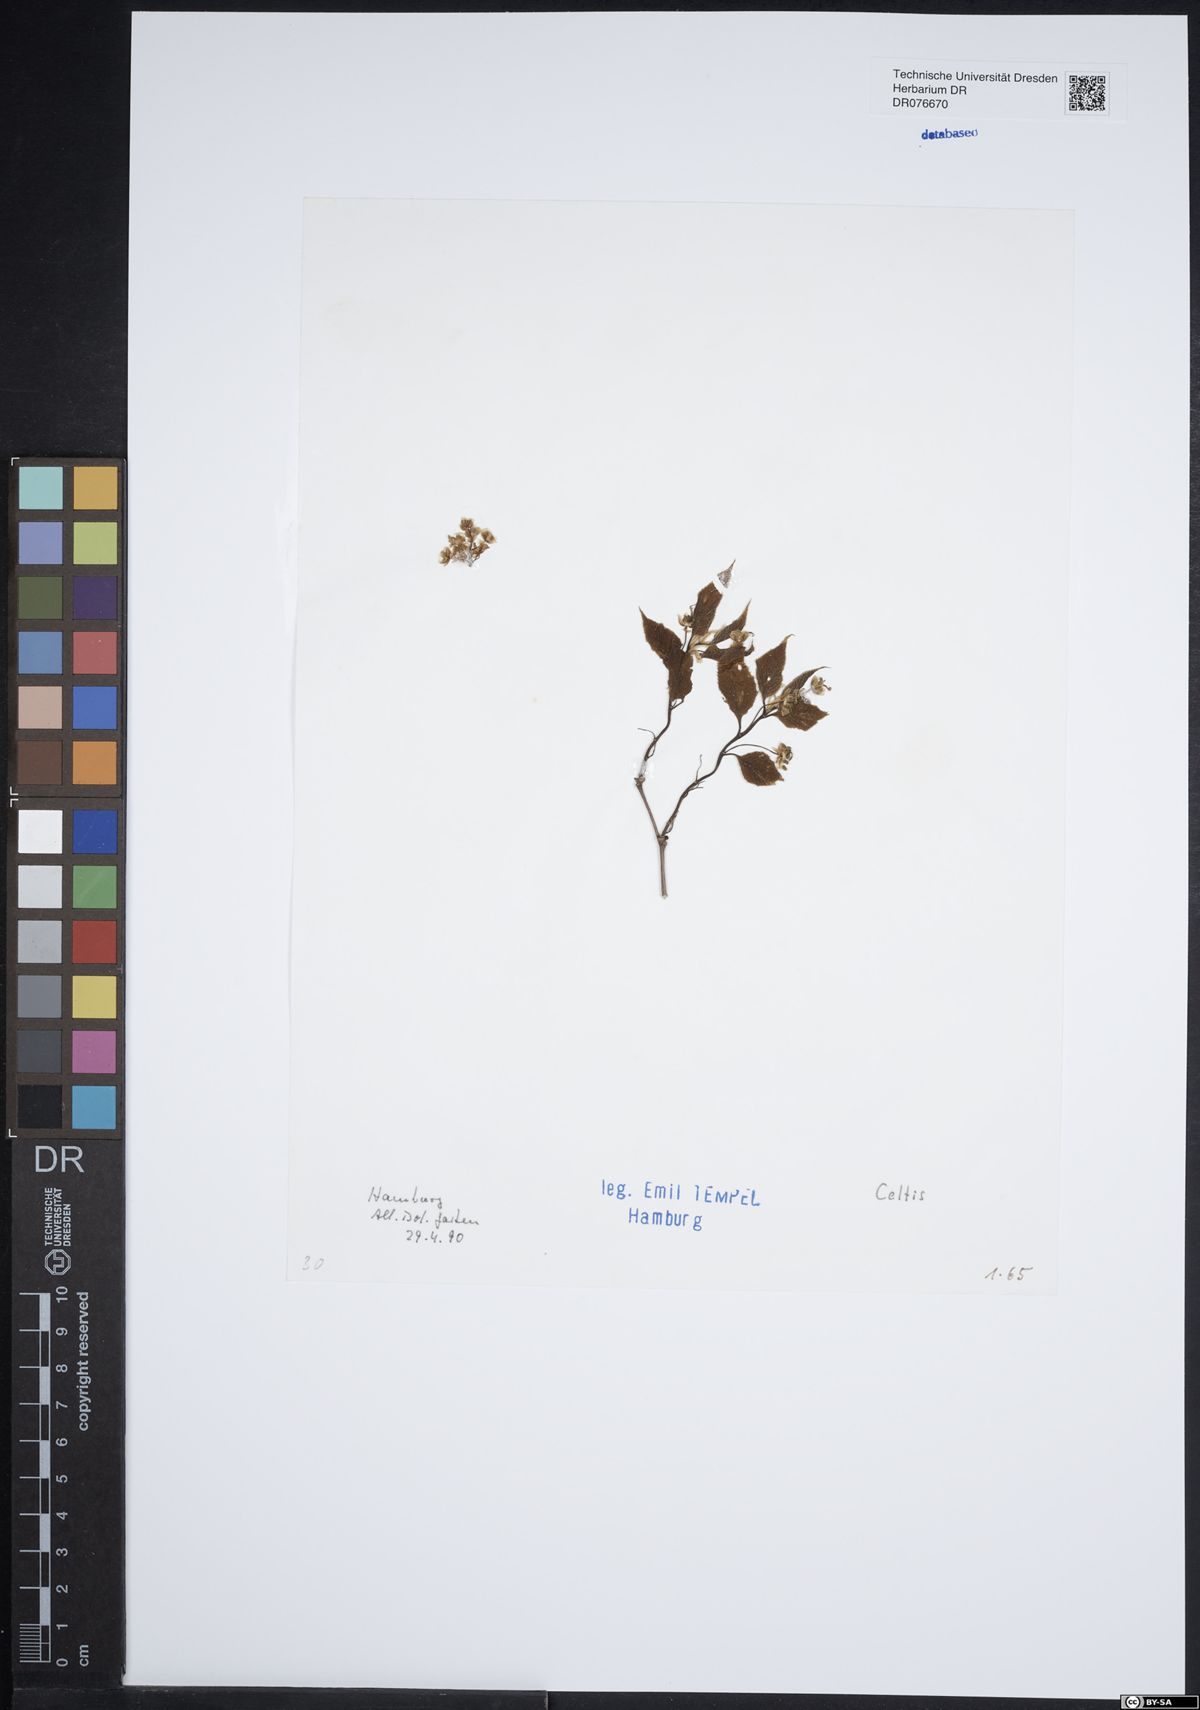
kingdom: Plantae
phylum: Tracheophyta
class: Magnoliopsida
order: Rosales
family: Cannabaceae
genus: Celtis
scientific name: Celtis
